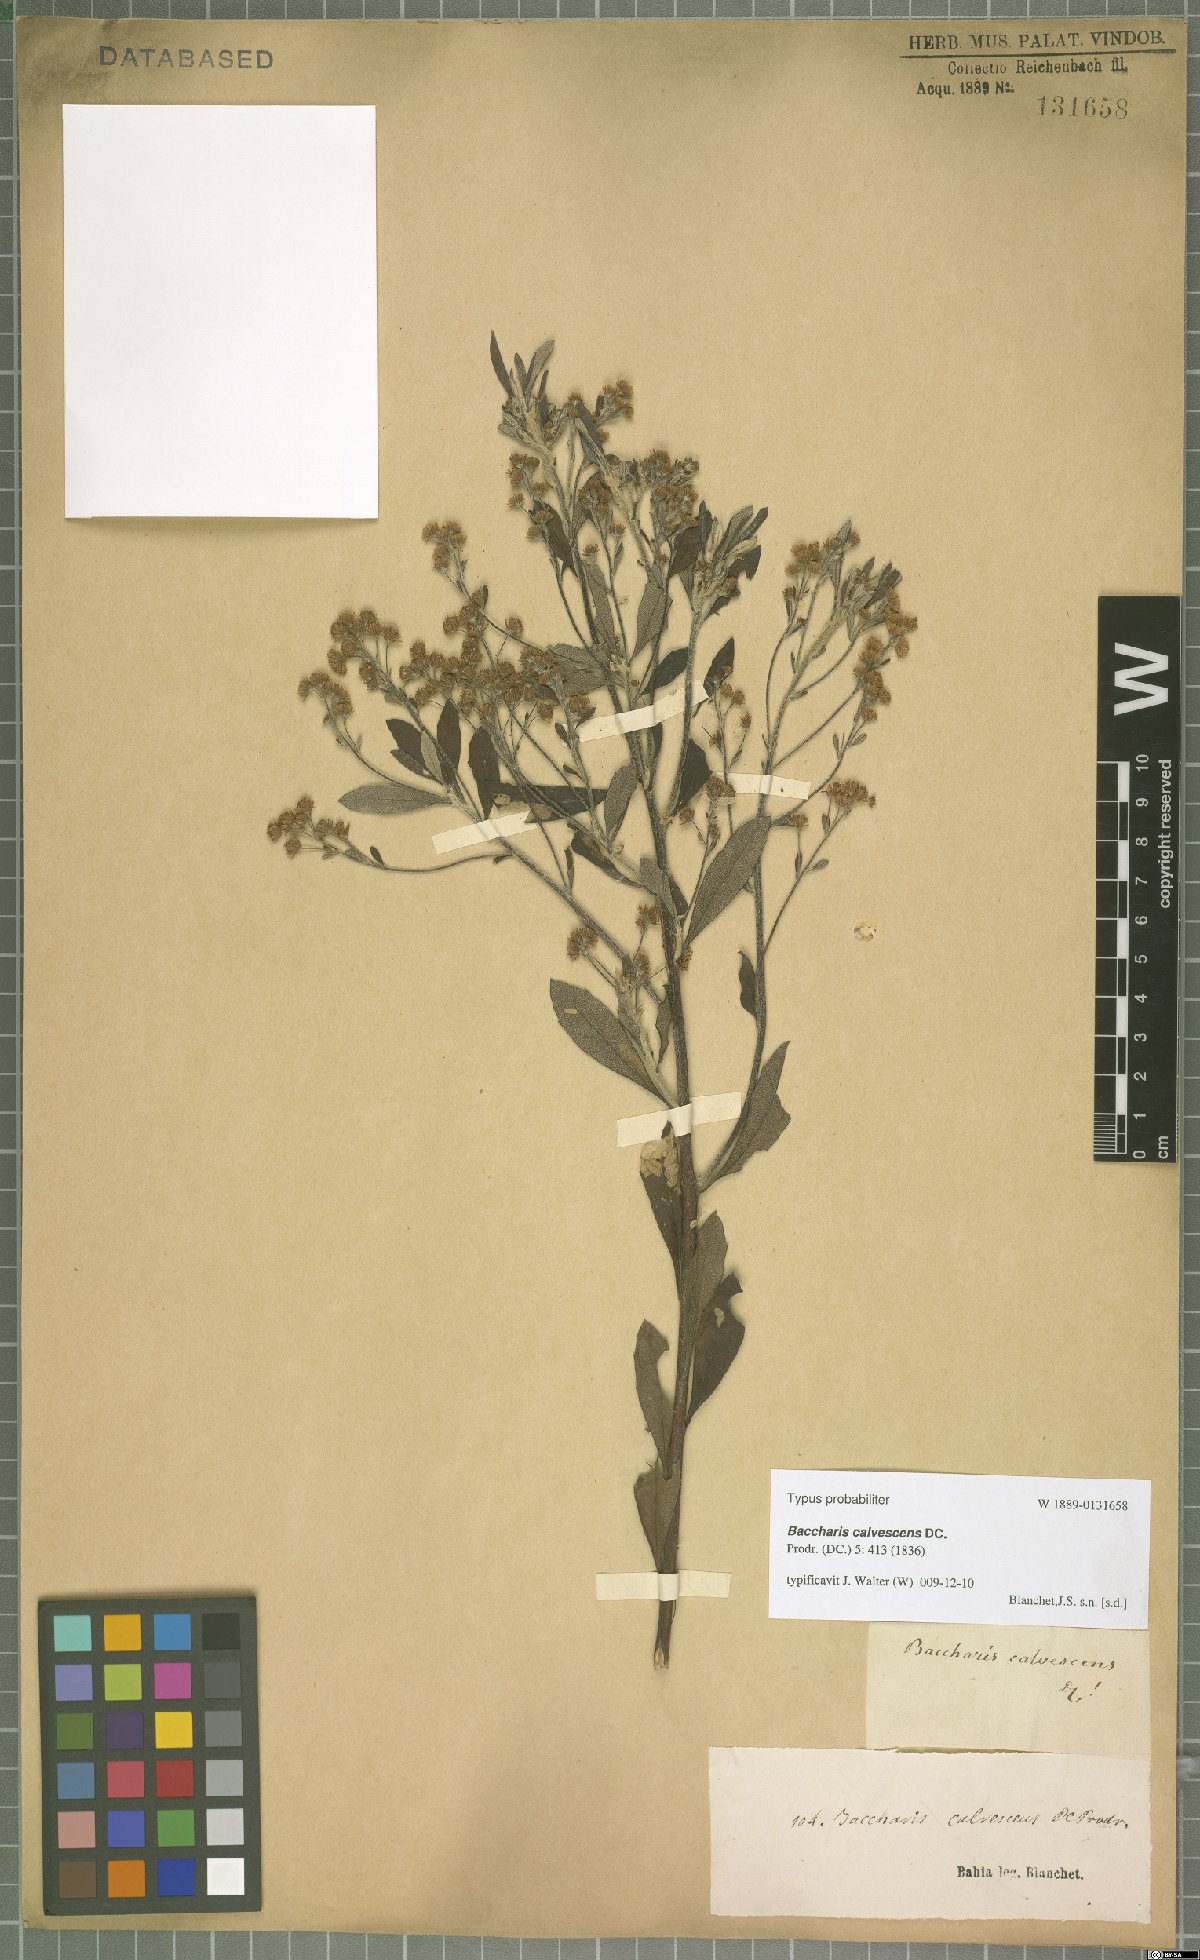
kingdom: Plantae
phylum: Tracheophyta
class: Magnoliopsida
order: Asterales
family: Asteraceae
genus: Baccharis
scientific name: Baccharis calvescens
